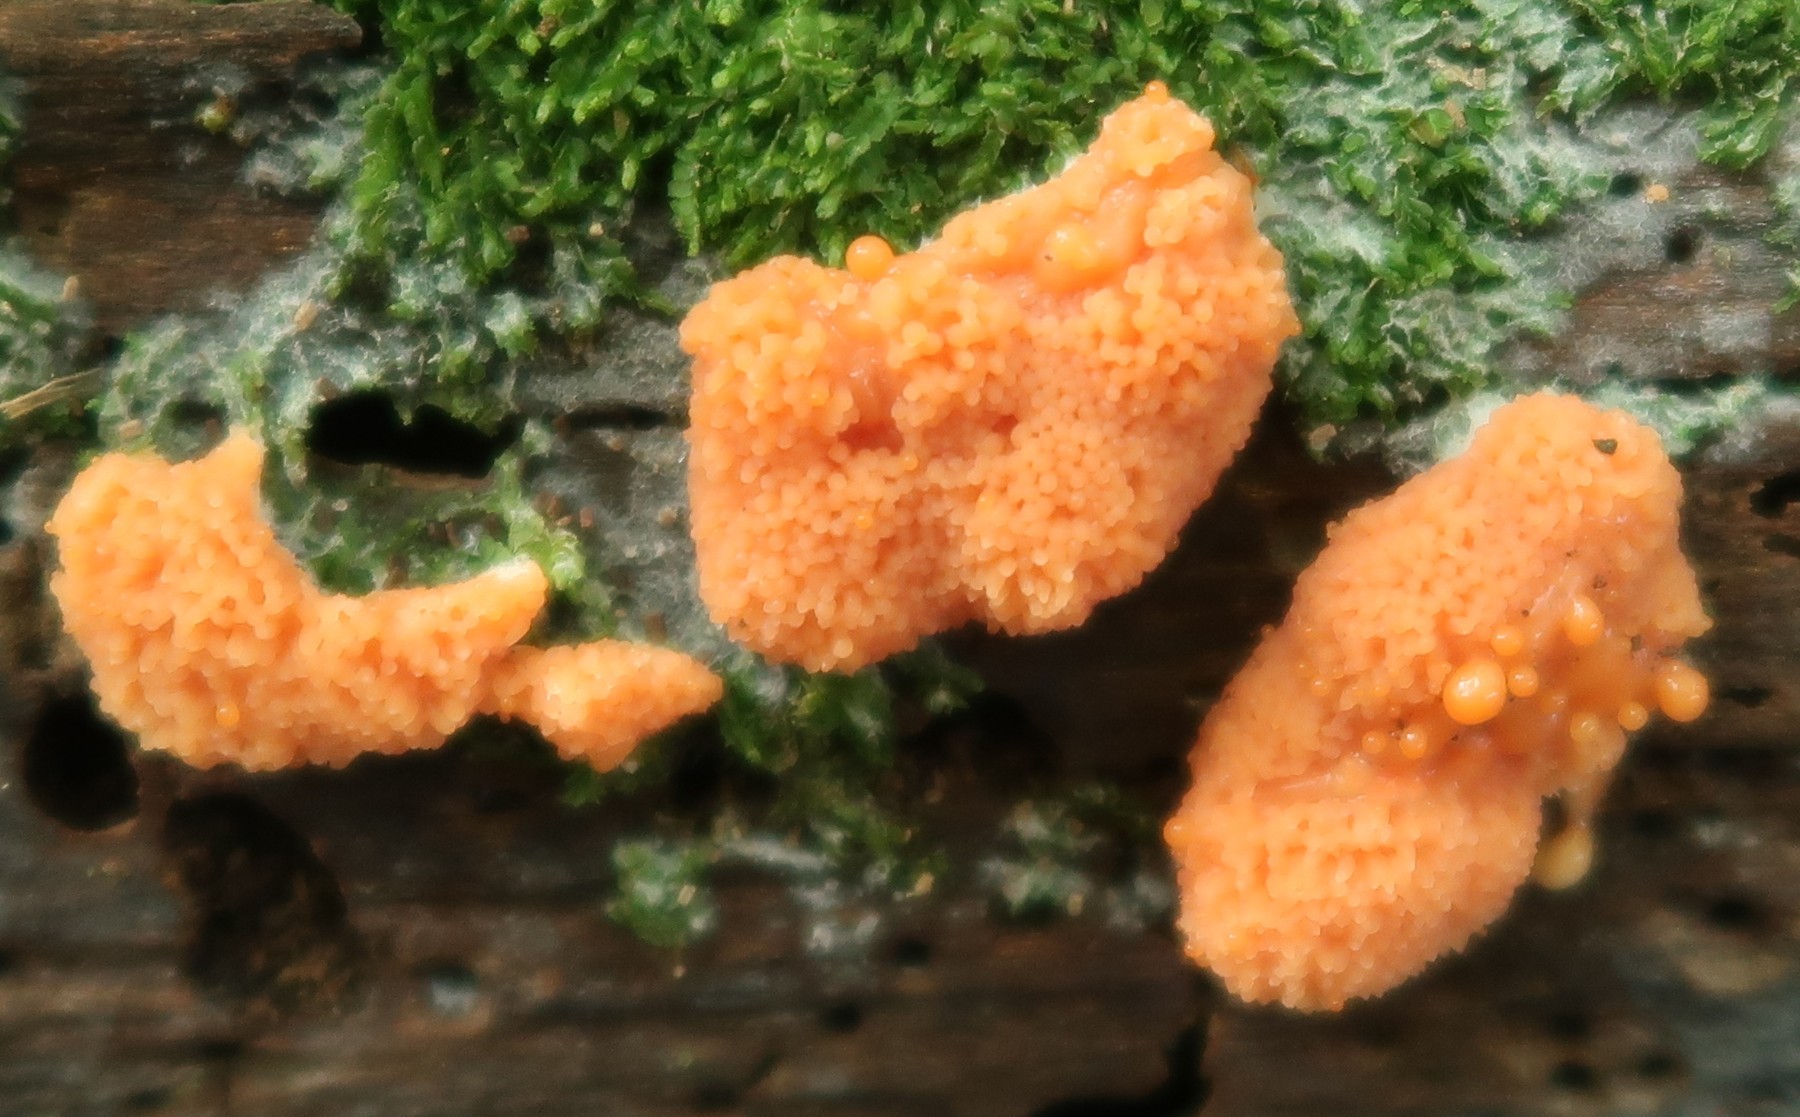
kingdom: Protozoa
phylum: Mycetozoa
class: Myxomycetes
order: Cribrariales
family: Tubiferaceae
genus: Tubifera
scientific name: Tubifera ferruginosa
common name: kanel-støvrør
